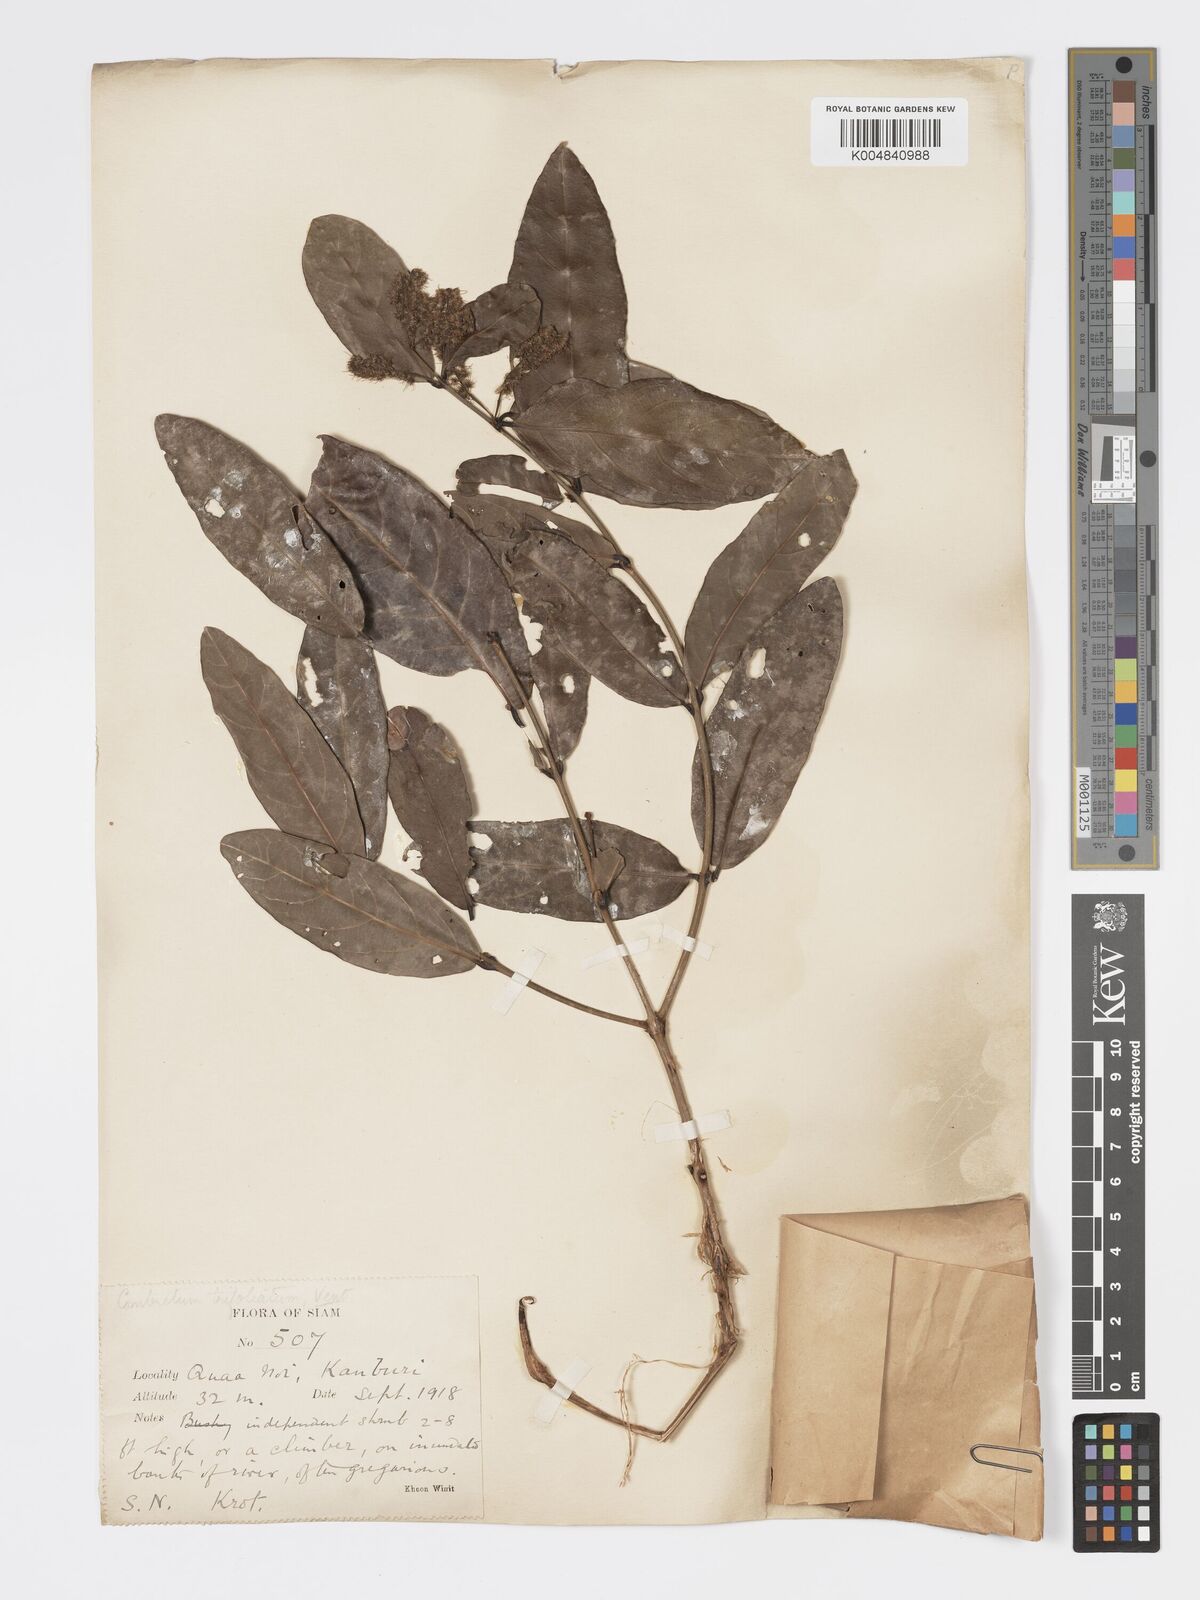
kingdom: Plantae
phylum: Tracheophyta
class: Magnoliopsida
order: Myrtales
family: Combretaceae
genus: Combretum
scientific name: Combretum trifoliatum
